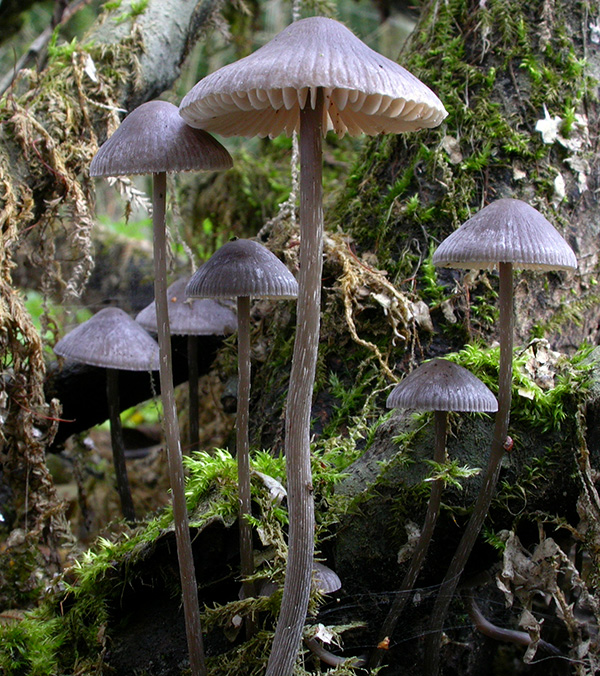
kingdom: Fungi
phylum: Basidiomycota
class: Agaricomycetes
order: Agaricales
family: Mycenaceae
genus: Mycena
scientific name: Mycena polygramma
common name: mangestribet huesvamp
